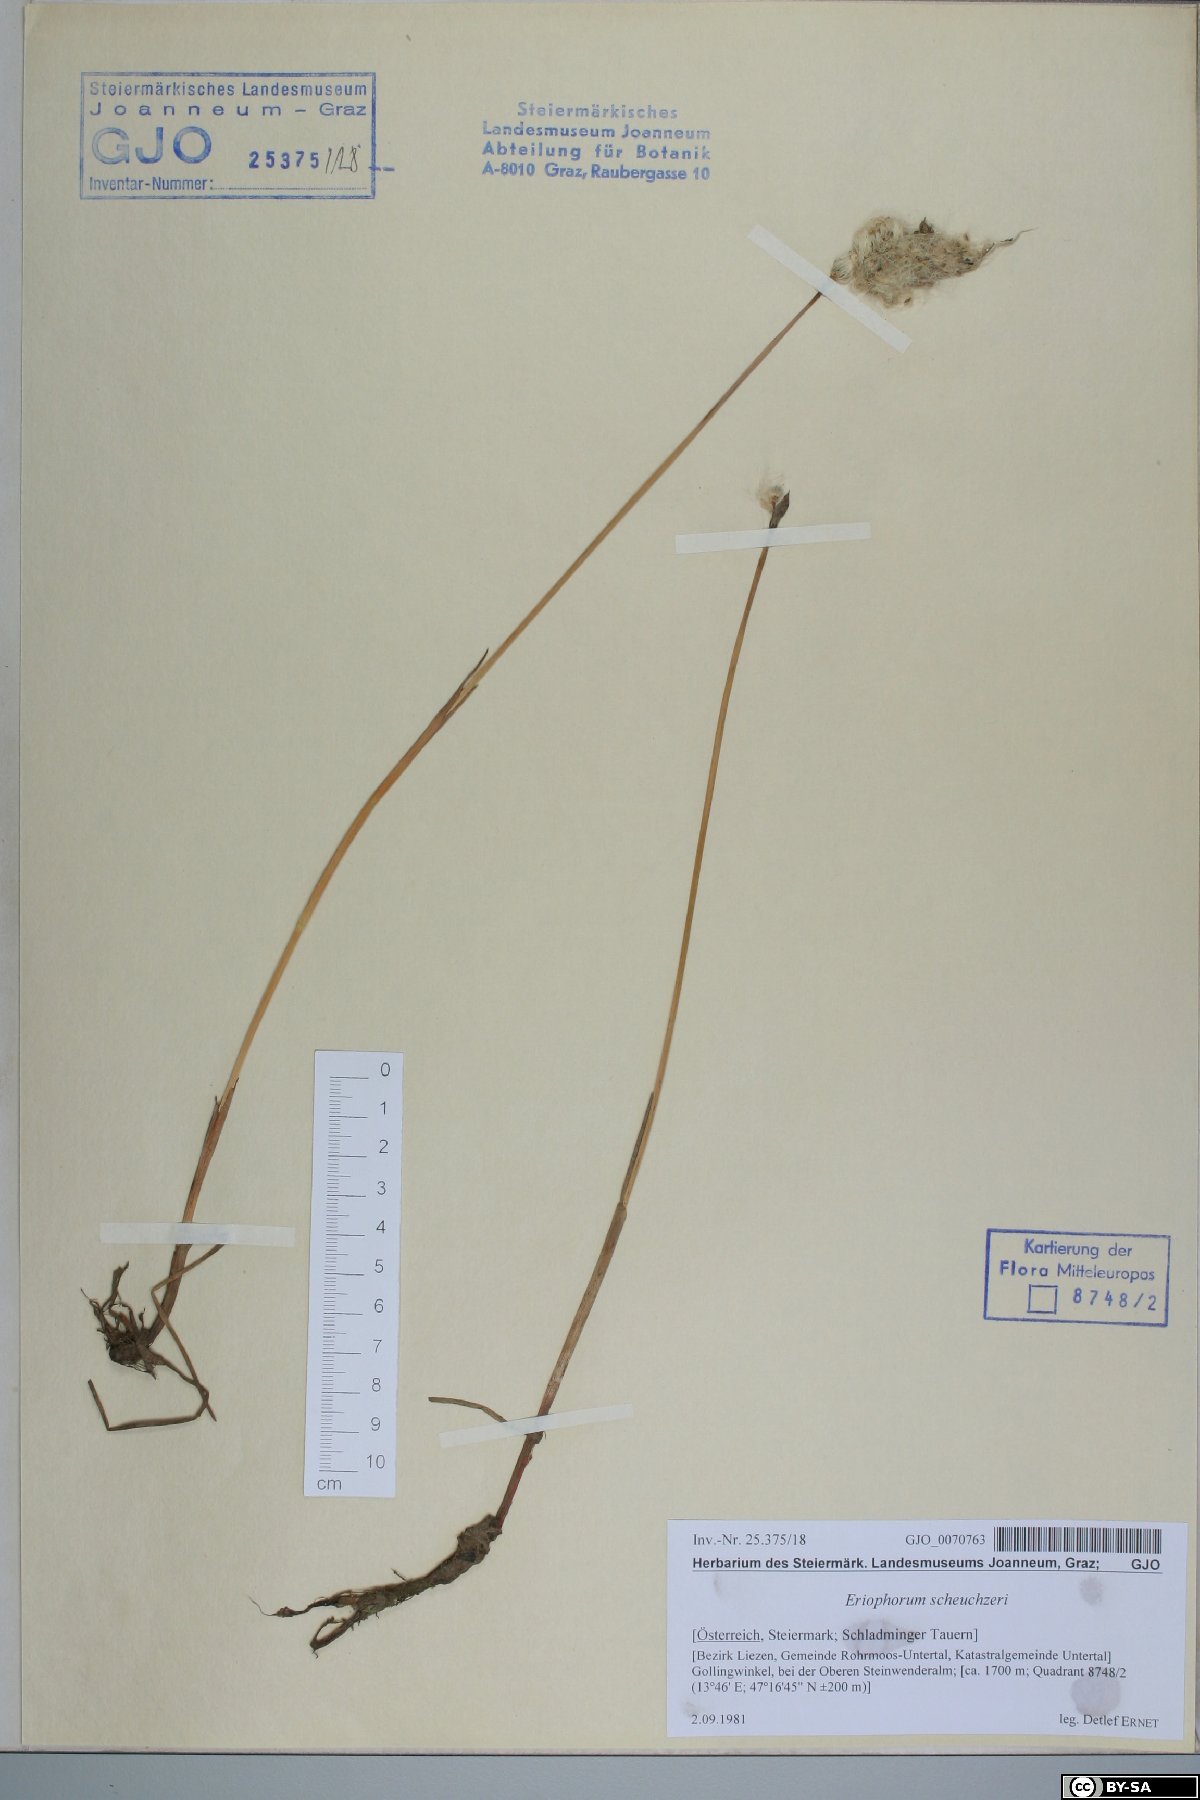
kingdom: Plantae
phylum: Tracheophyta
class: Liliopsida
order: Poales
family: Cyperaceae
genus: Eriophorum
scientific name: Eriophorum scheuchzeri
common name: Scheuchzer's cottongrass
